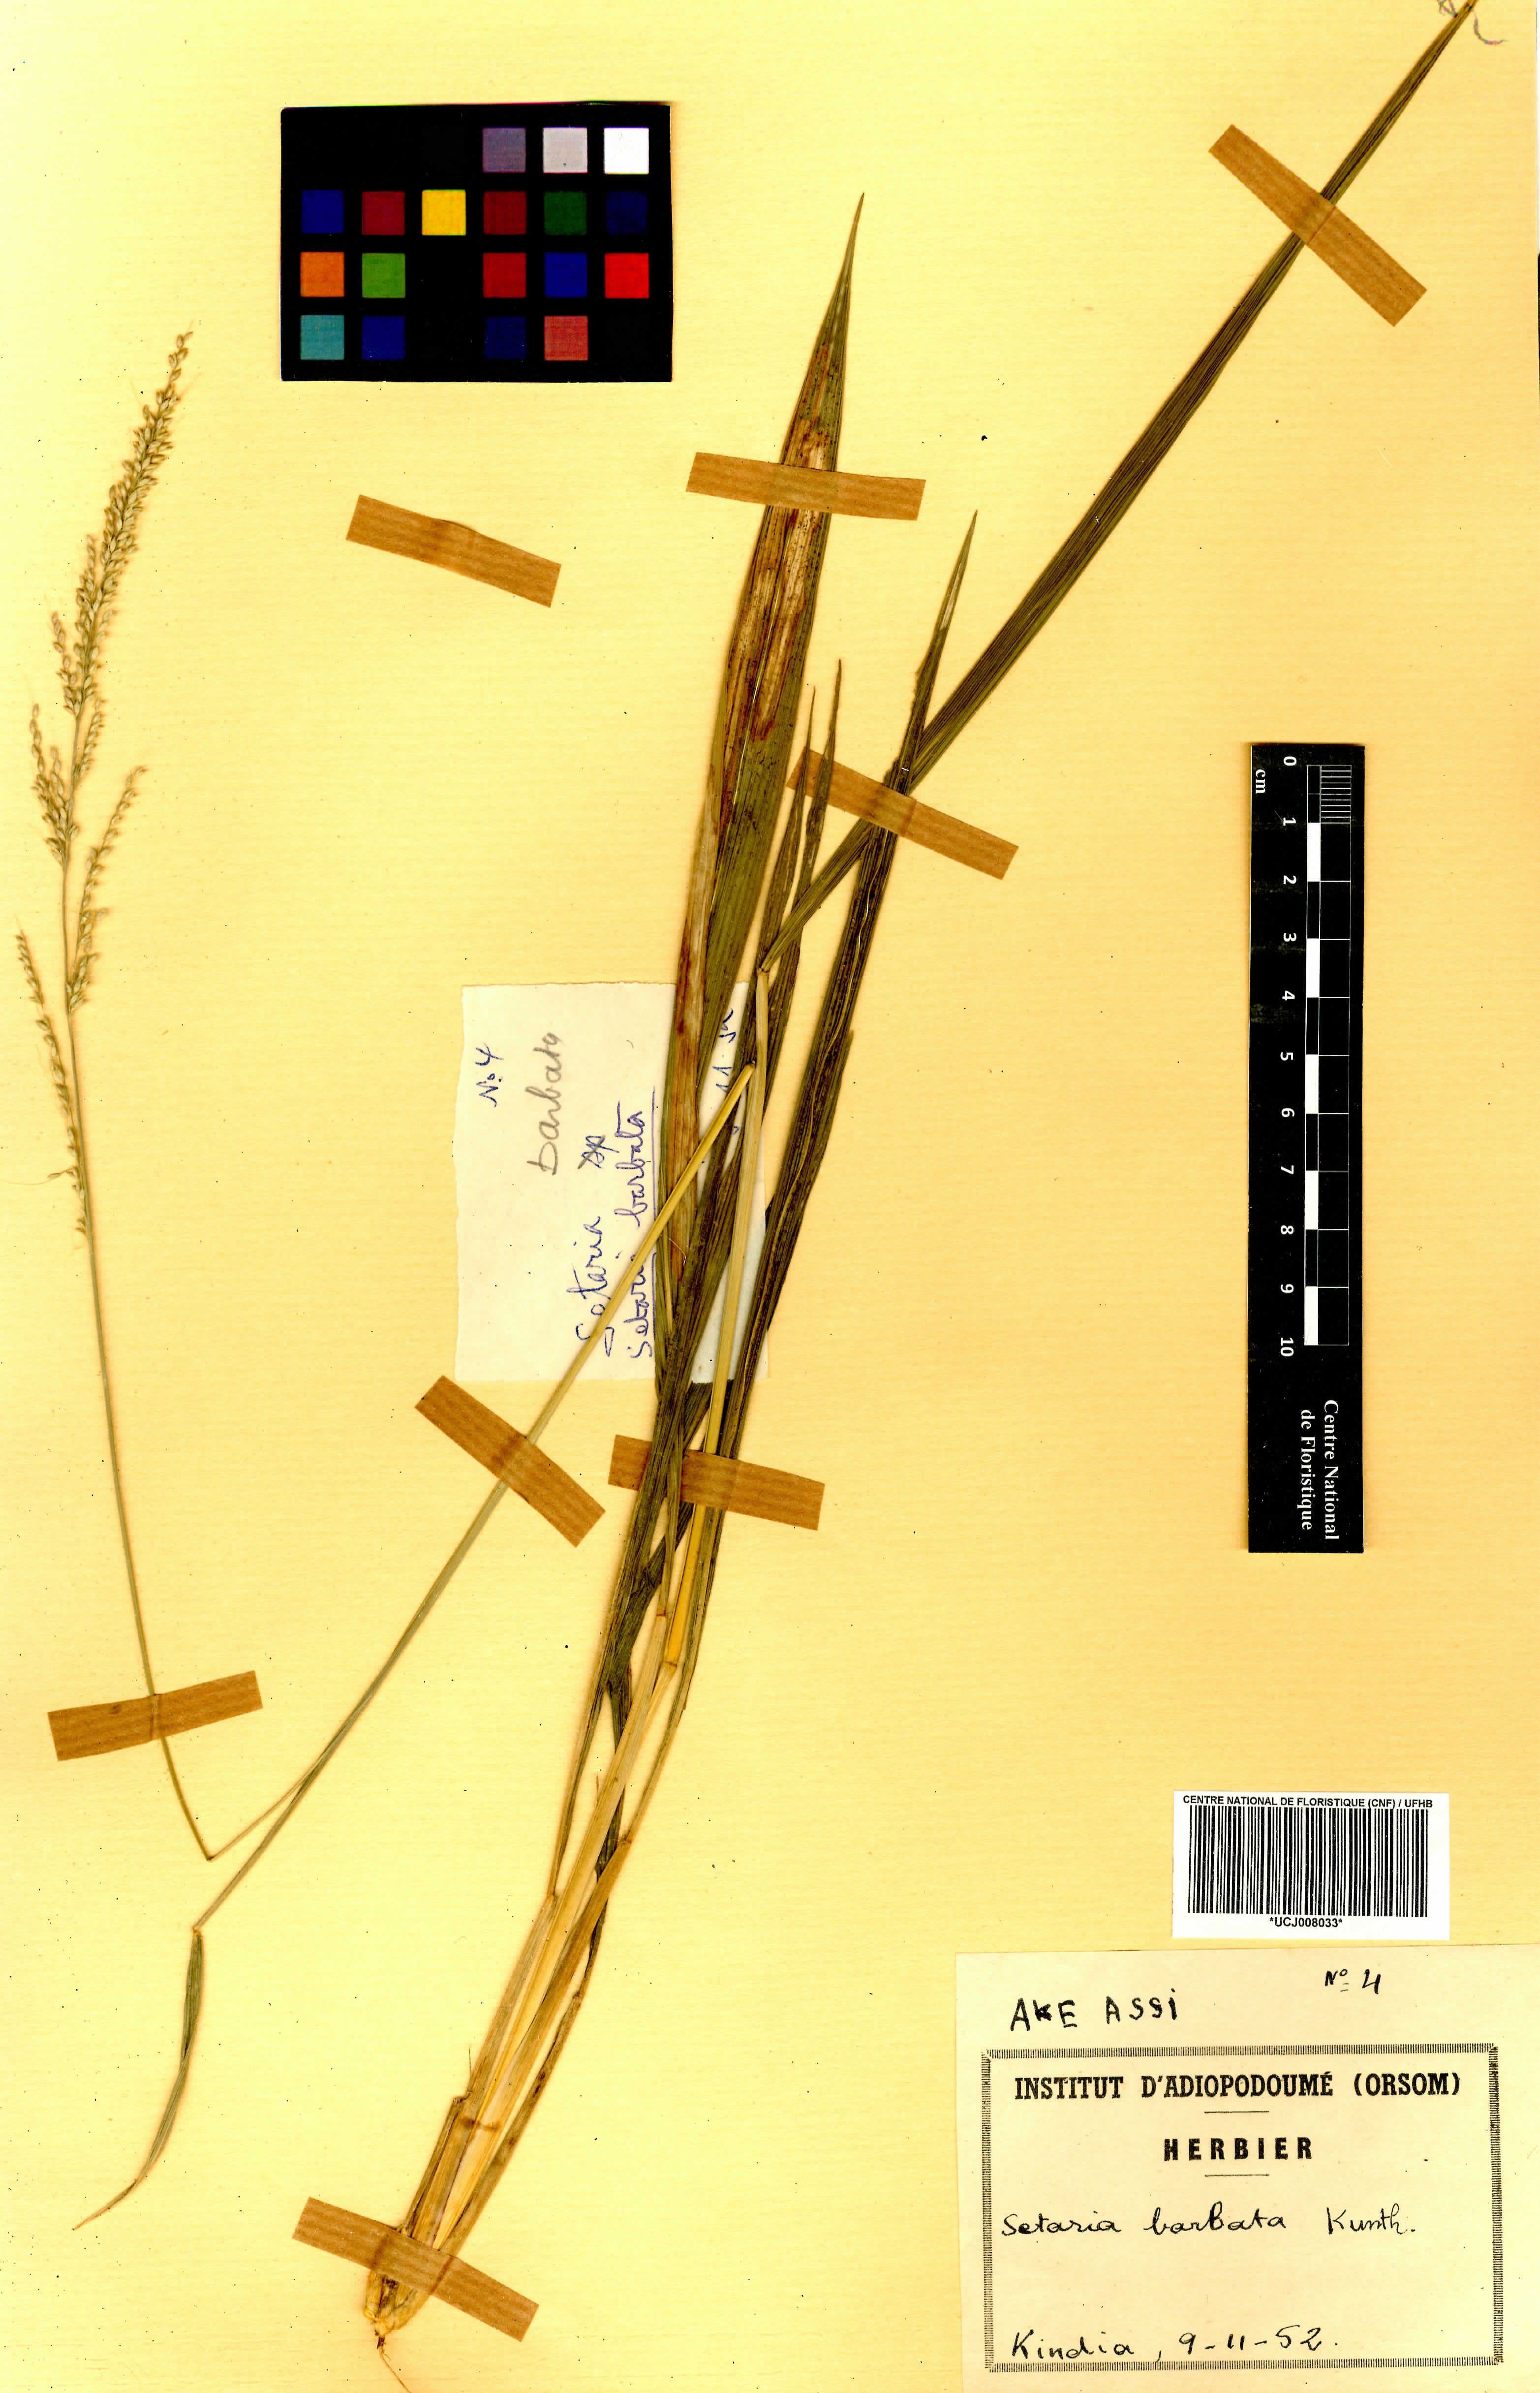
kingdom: Plantae
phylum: Tracheophyta
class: Liliopsida
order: Poales
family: Poaceae
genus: Setaria
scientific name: Setaria barbata
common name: East indian bristlegrass
